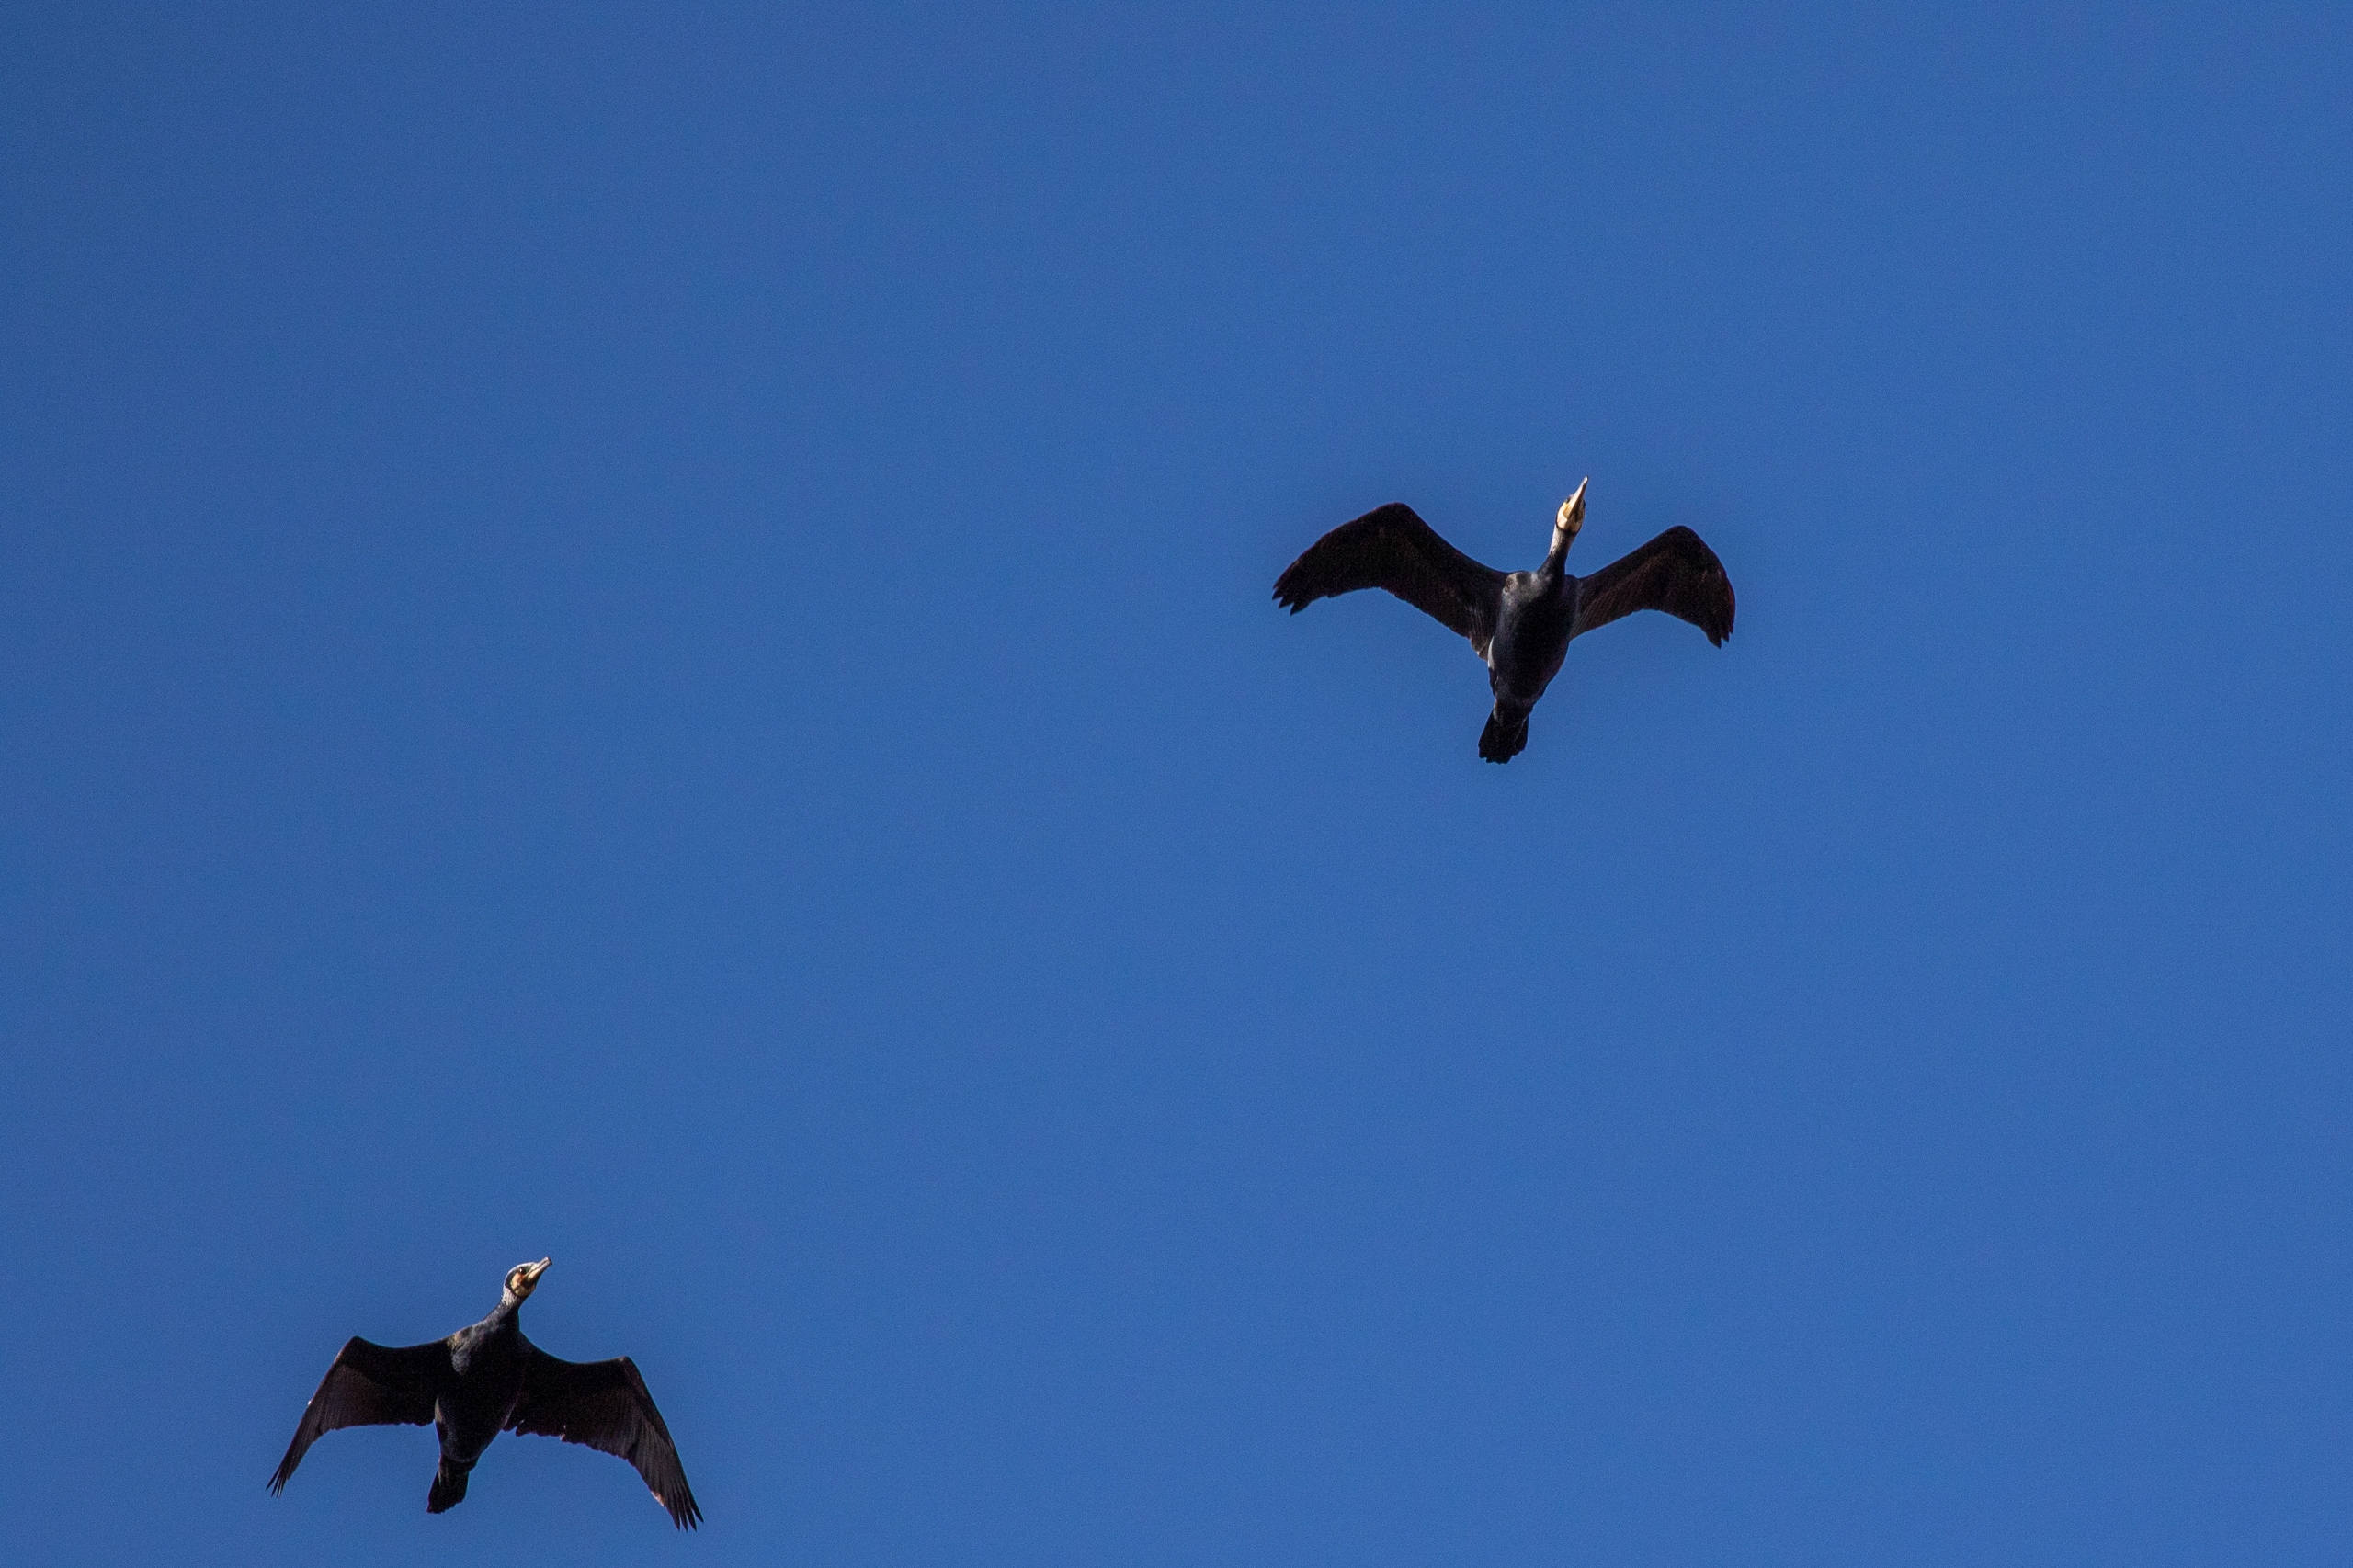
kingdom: Animalia
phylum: Chordata
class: Aves
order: Suliformes
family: Phalacrocoracidae
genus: Phalacrocorax
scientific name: Phalacrocorax carbo
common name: Skarv
